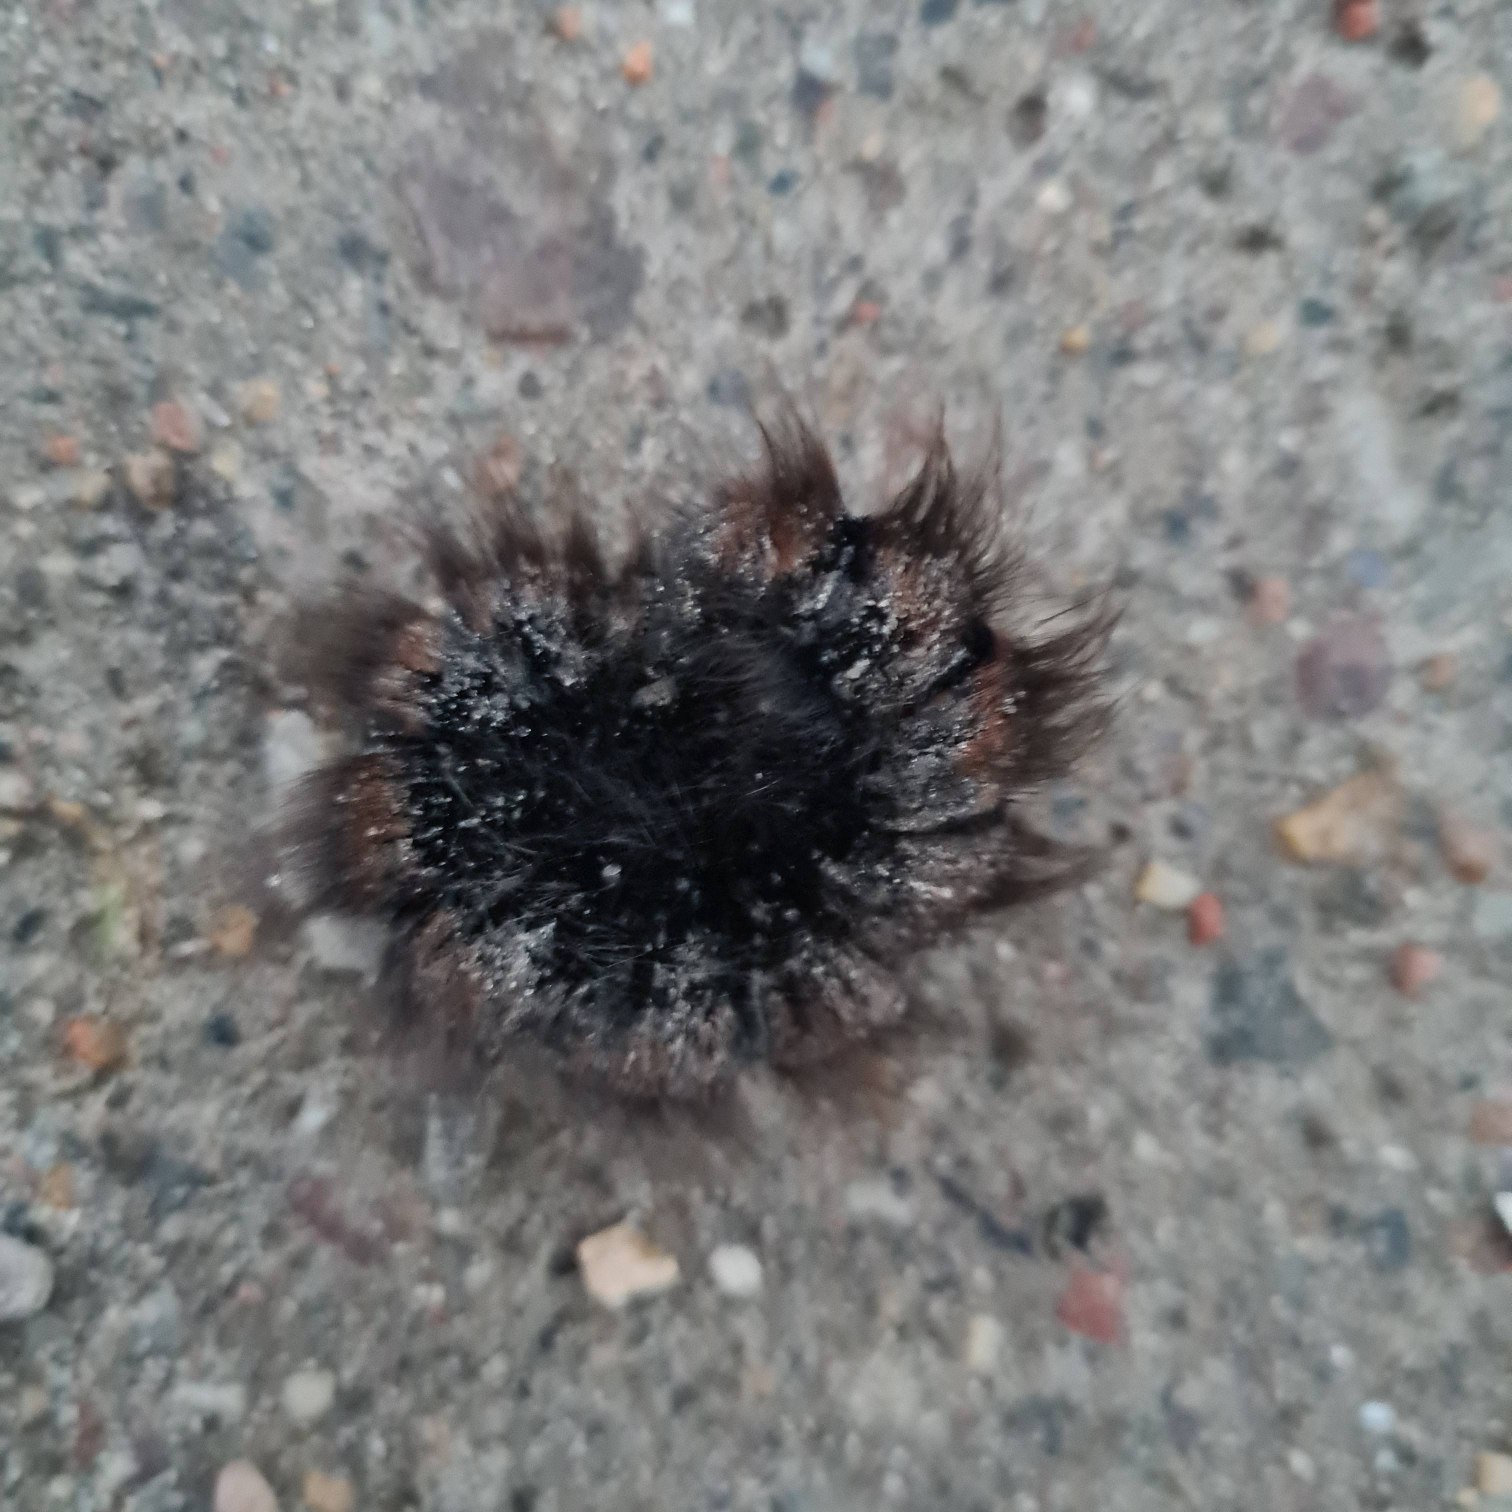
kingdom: Animalia
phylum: Arthropoda
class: Insecta
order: Lepidoptera
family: Lasiocampidae
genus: Macrothylacia
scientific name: Macrothylacia rubi
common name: Brombærspinder
